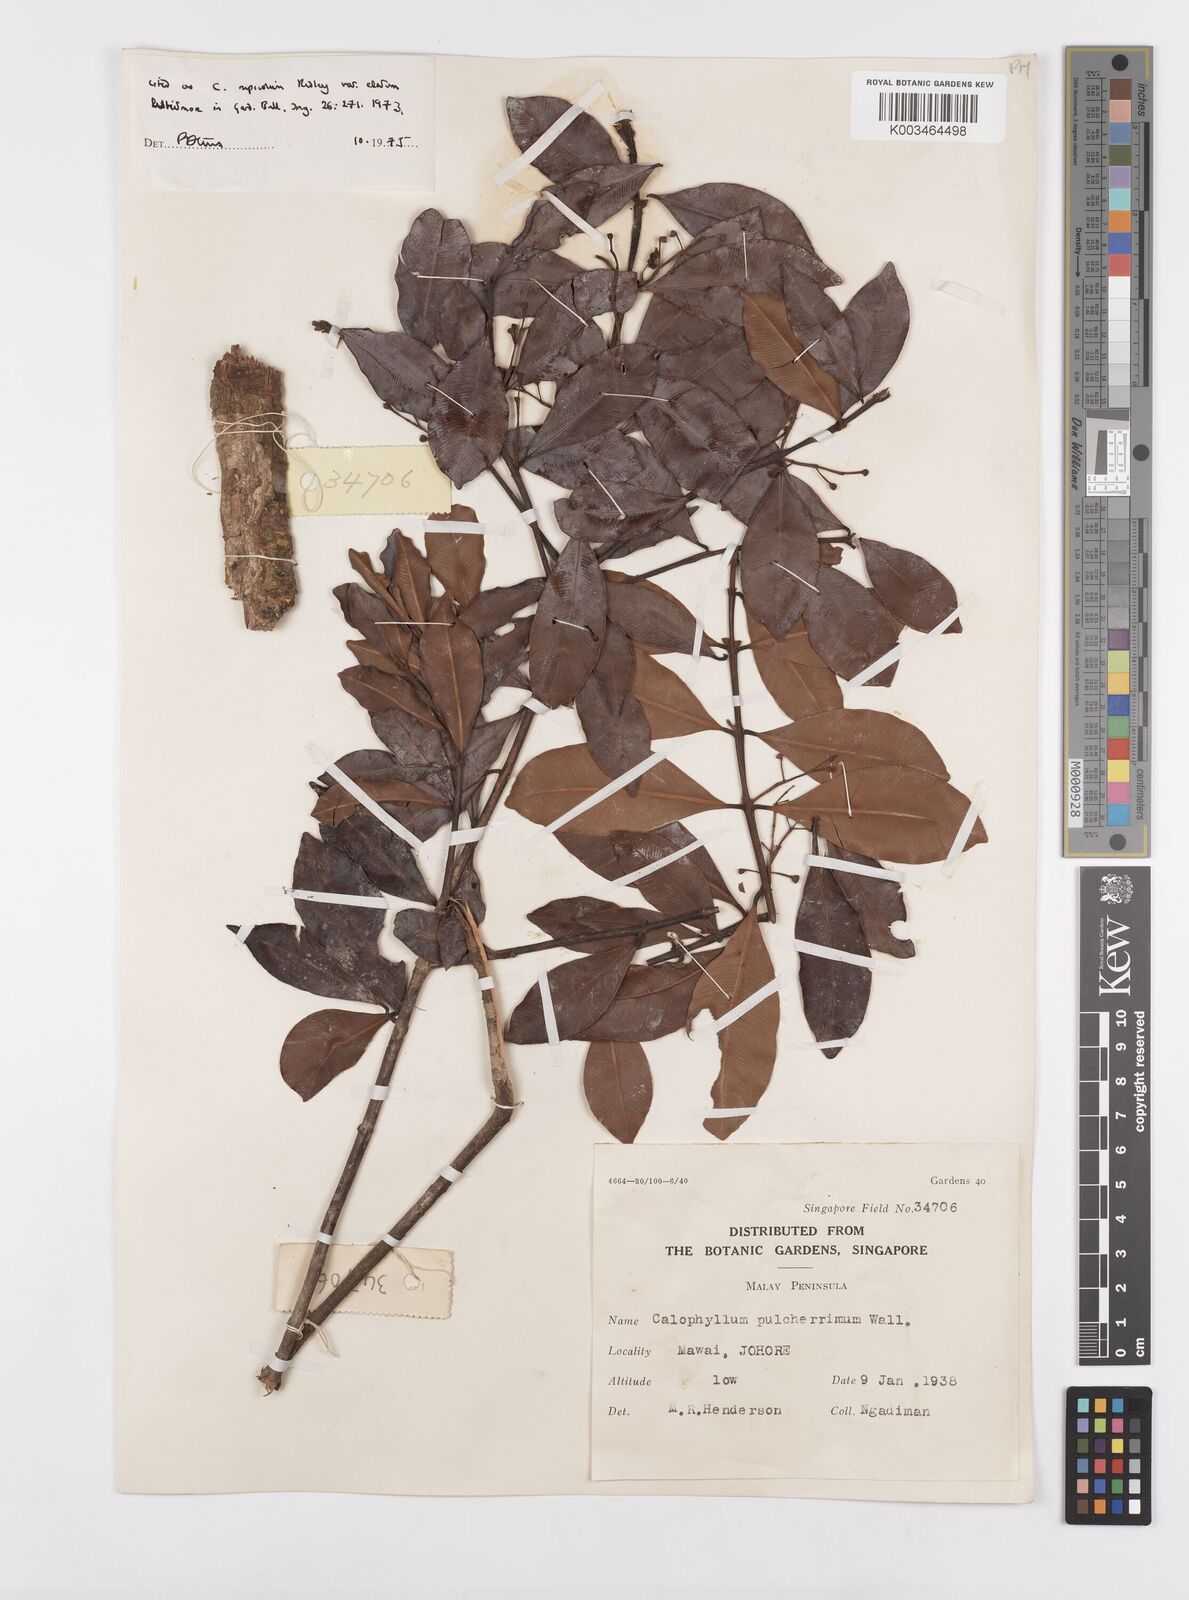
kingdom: Plantae
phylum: Tracheophyta
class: Magnoliopsida
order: Malpighiales
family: Calophyllaceae
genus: Calophyllum
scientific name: Calophyllum rupicola
